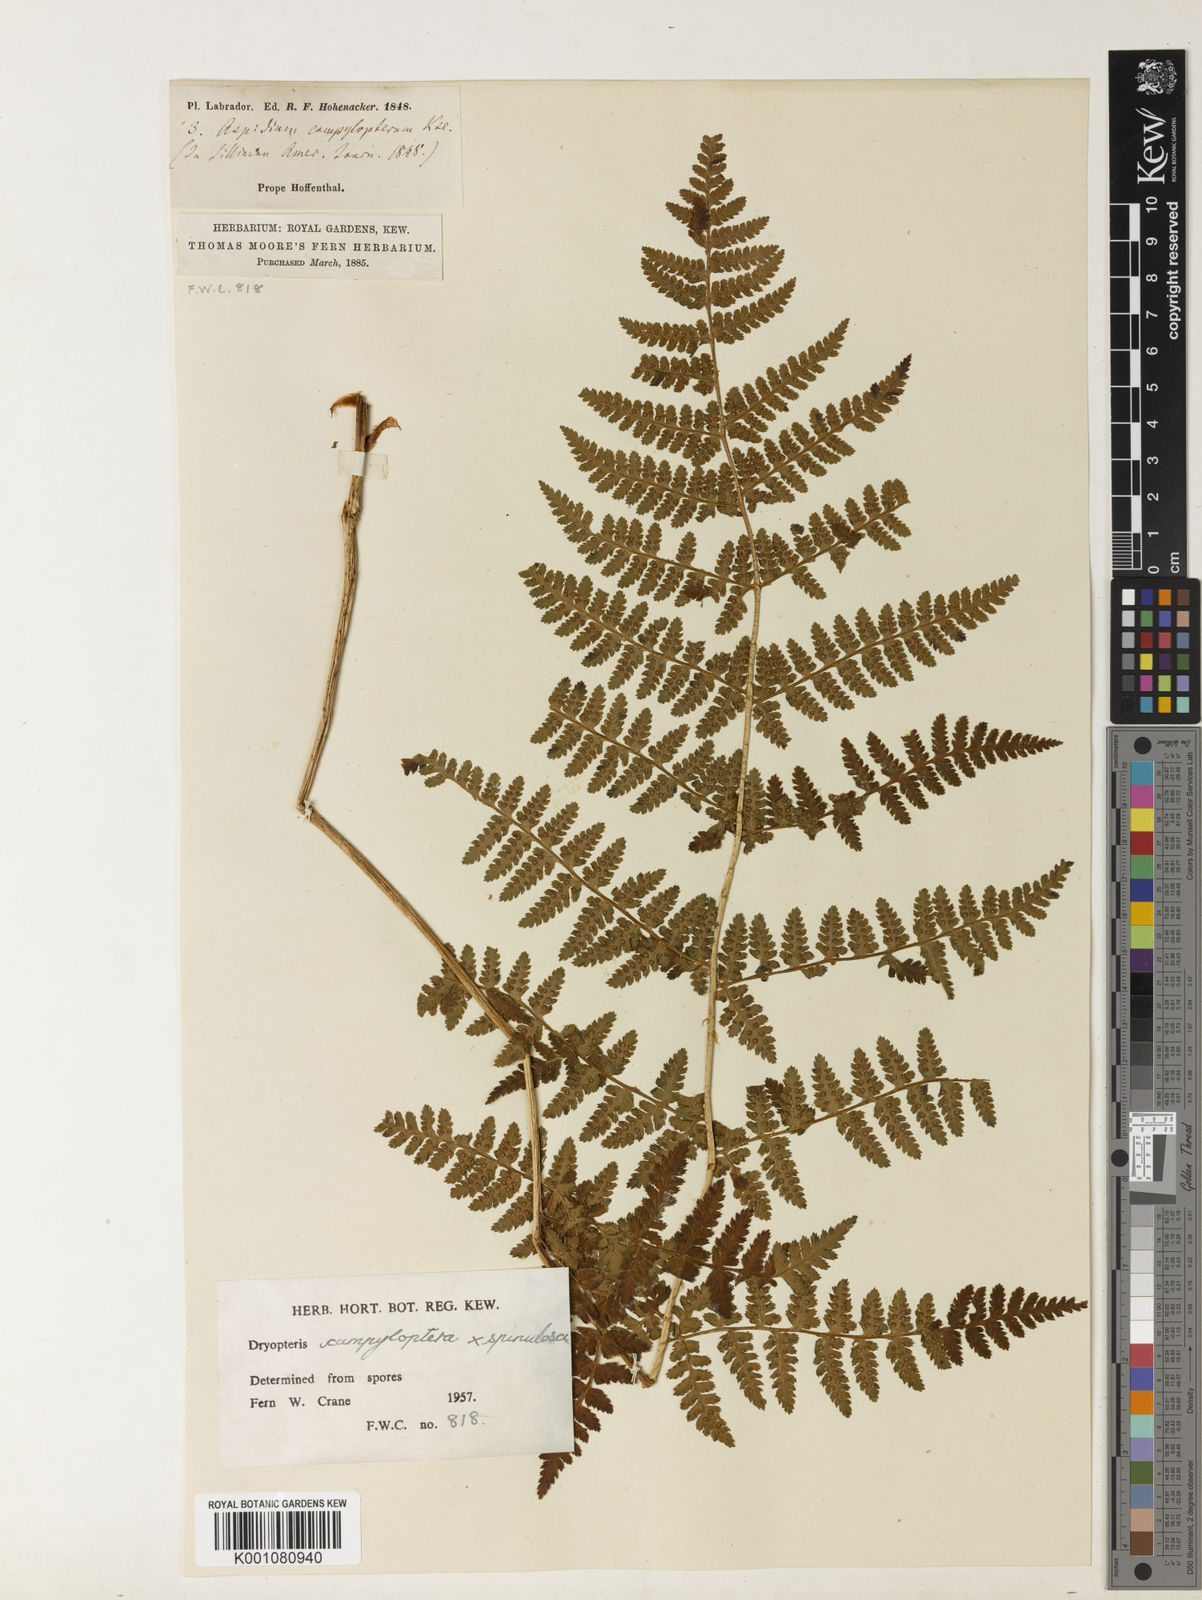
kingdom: Plantae
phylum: Tracheophyta
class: Polypodiopsida
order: Polypodiales
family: Dryopteridaceae
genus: Dryopteris
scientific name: Dryopteris dilatata
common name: Broad buckler-fern
